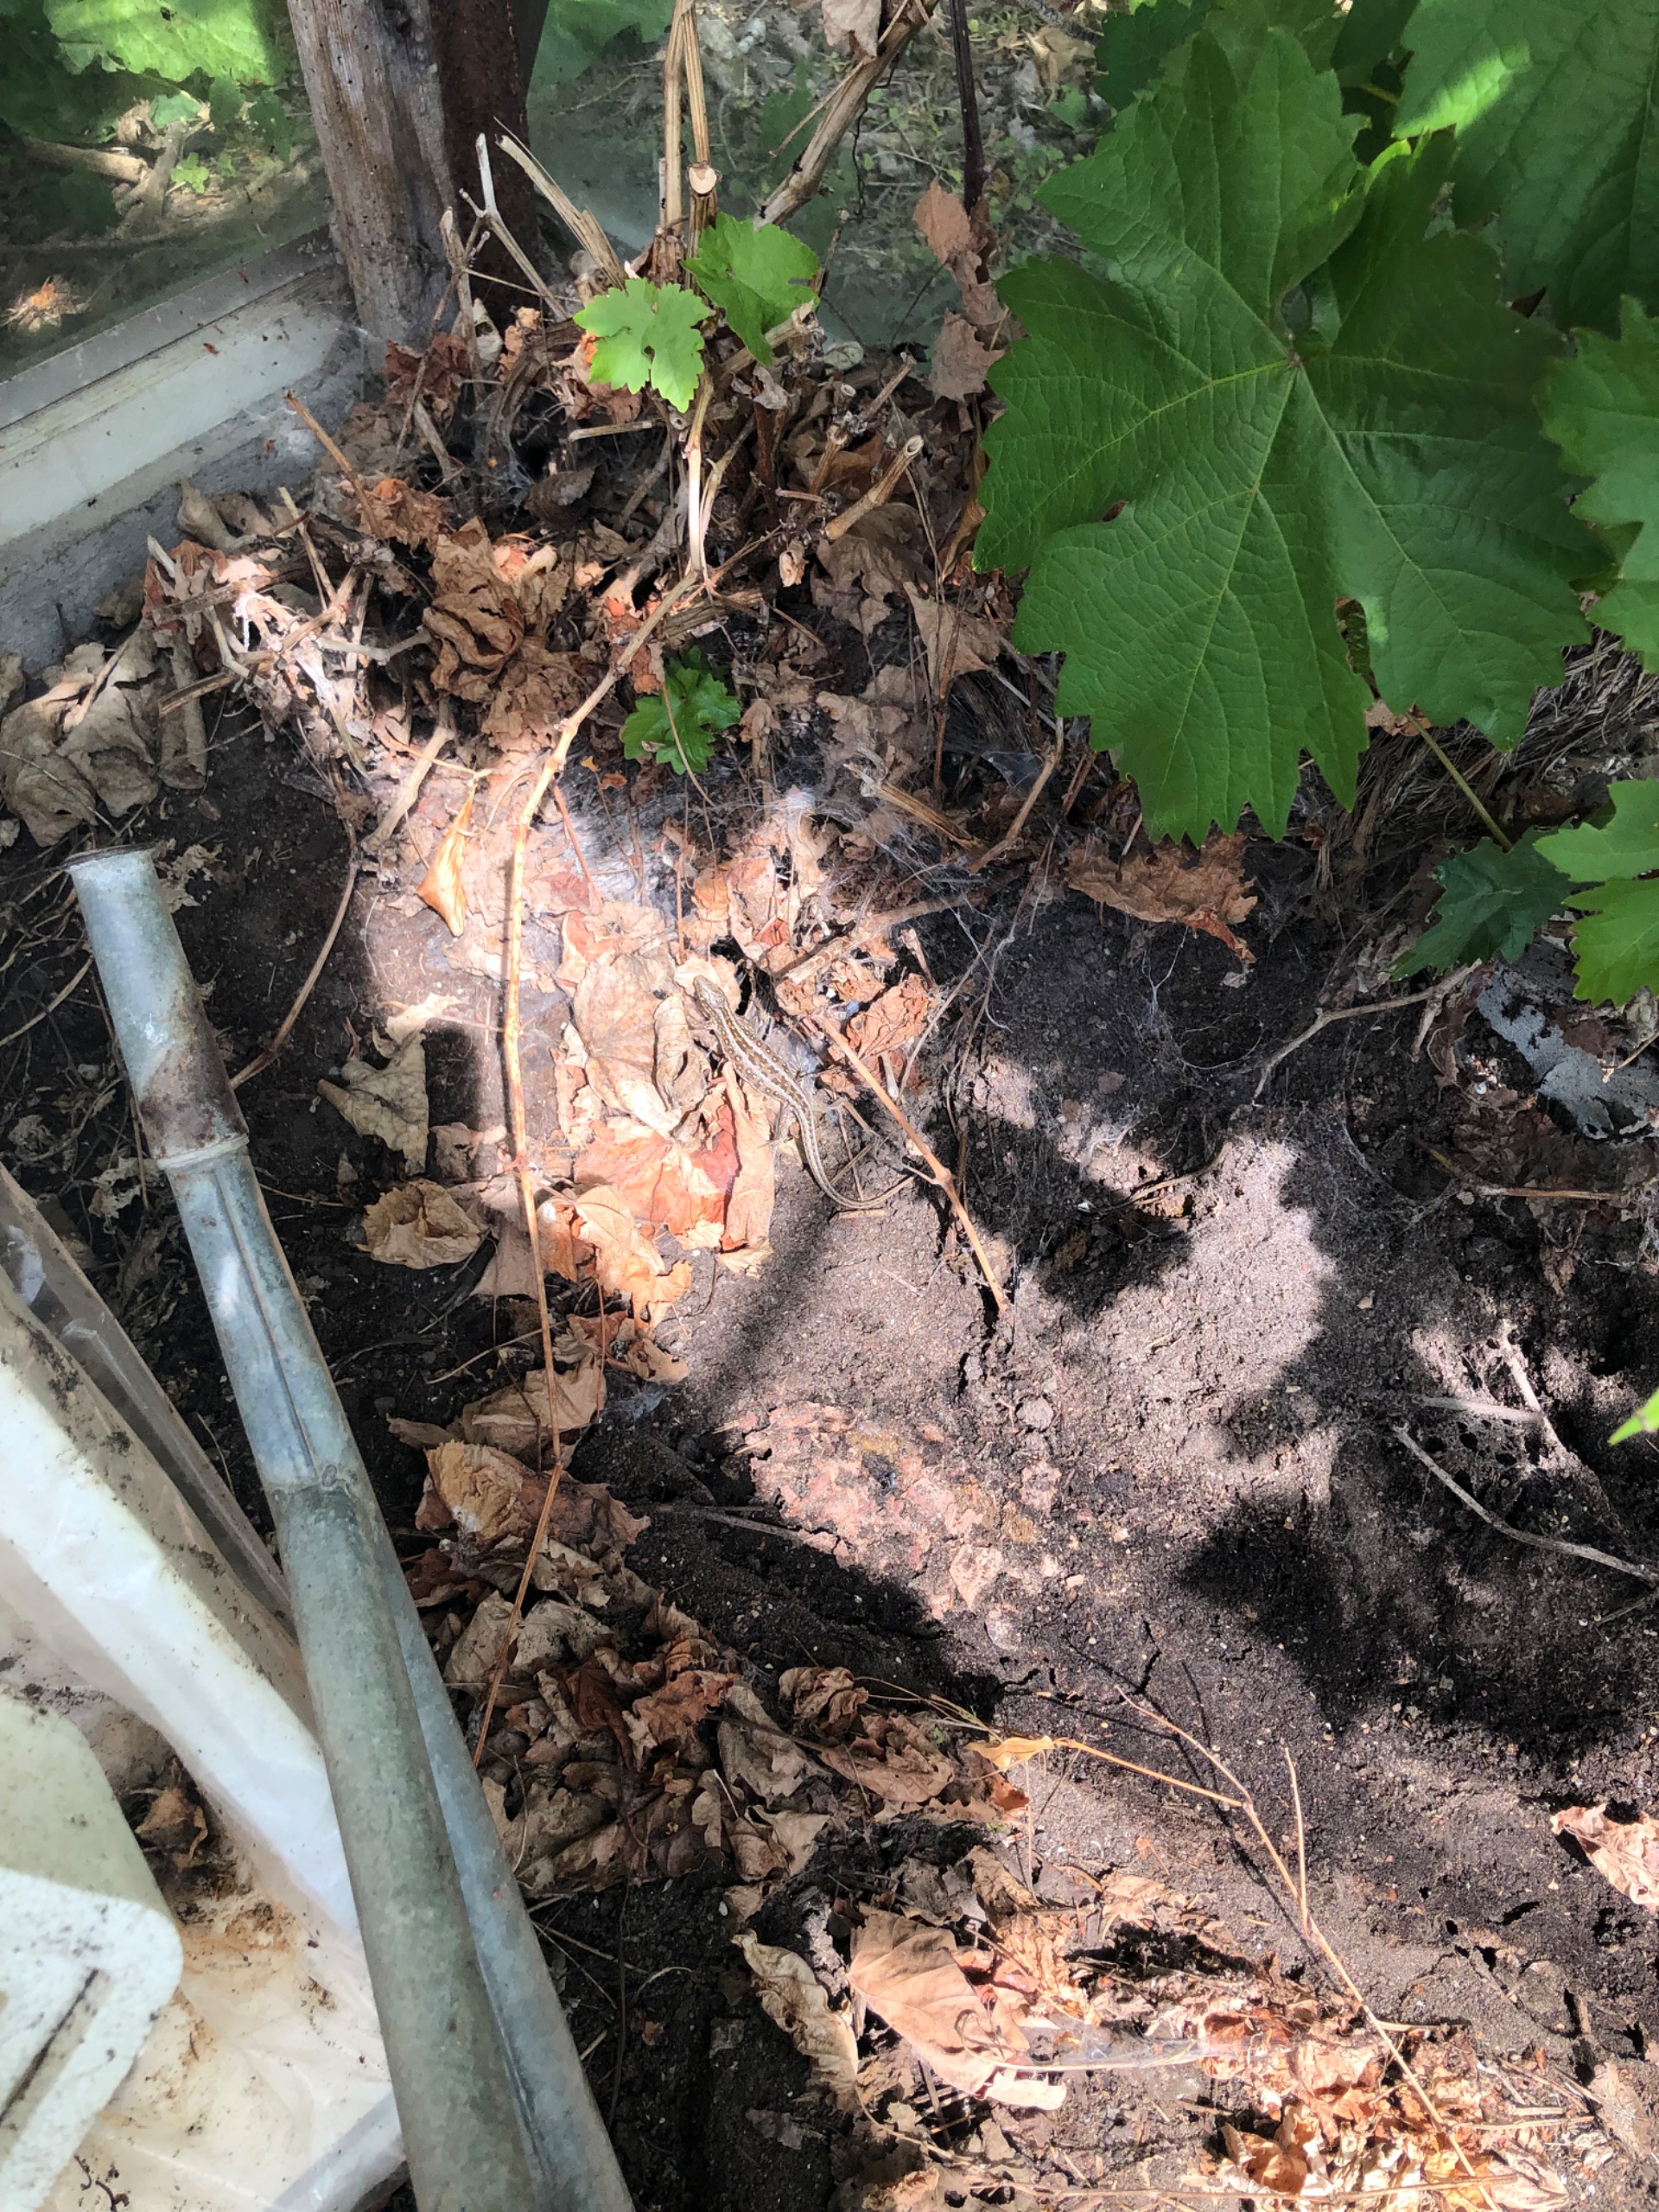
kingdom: Animalia
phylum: Chordata
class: Squamata
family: Lacertidae
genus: Lacerta
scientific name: Lacerta agilis
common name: Markfirben
